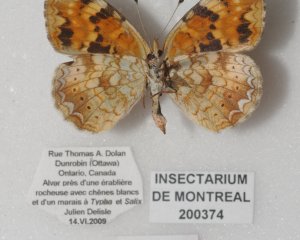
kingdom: Animalia
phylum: Arthropoda
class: Insecta
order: Lepidoptera
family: Nymphalidae
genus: Phyciodes
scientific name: Phyciodes batesii
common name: Tawny Crescent
